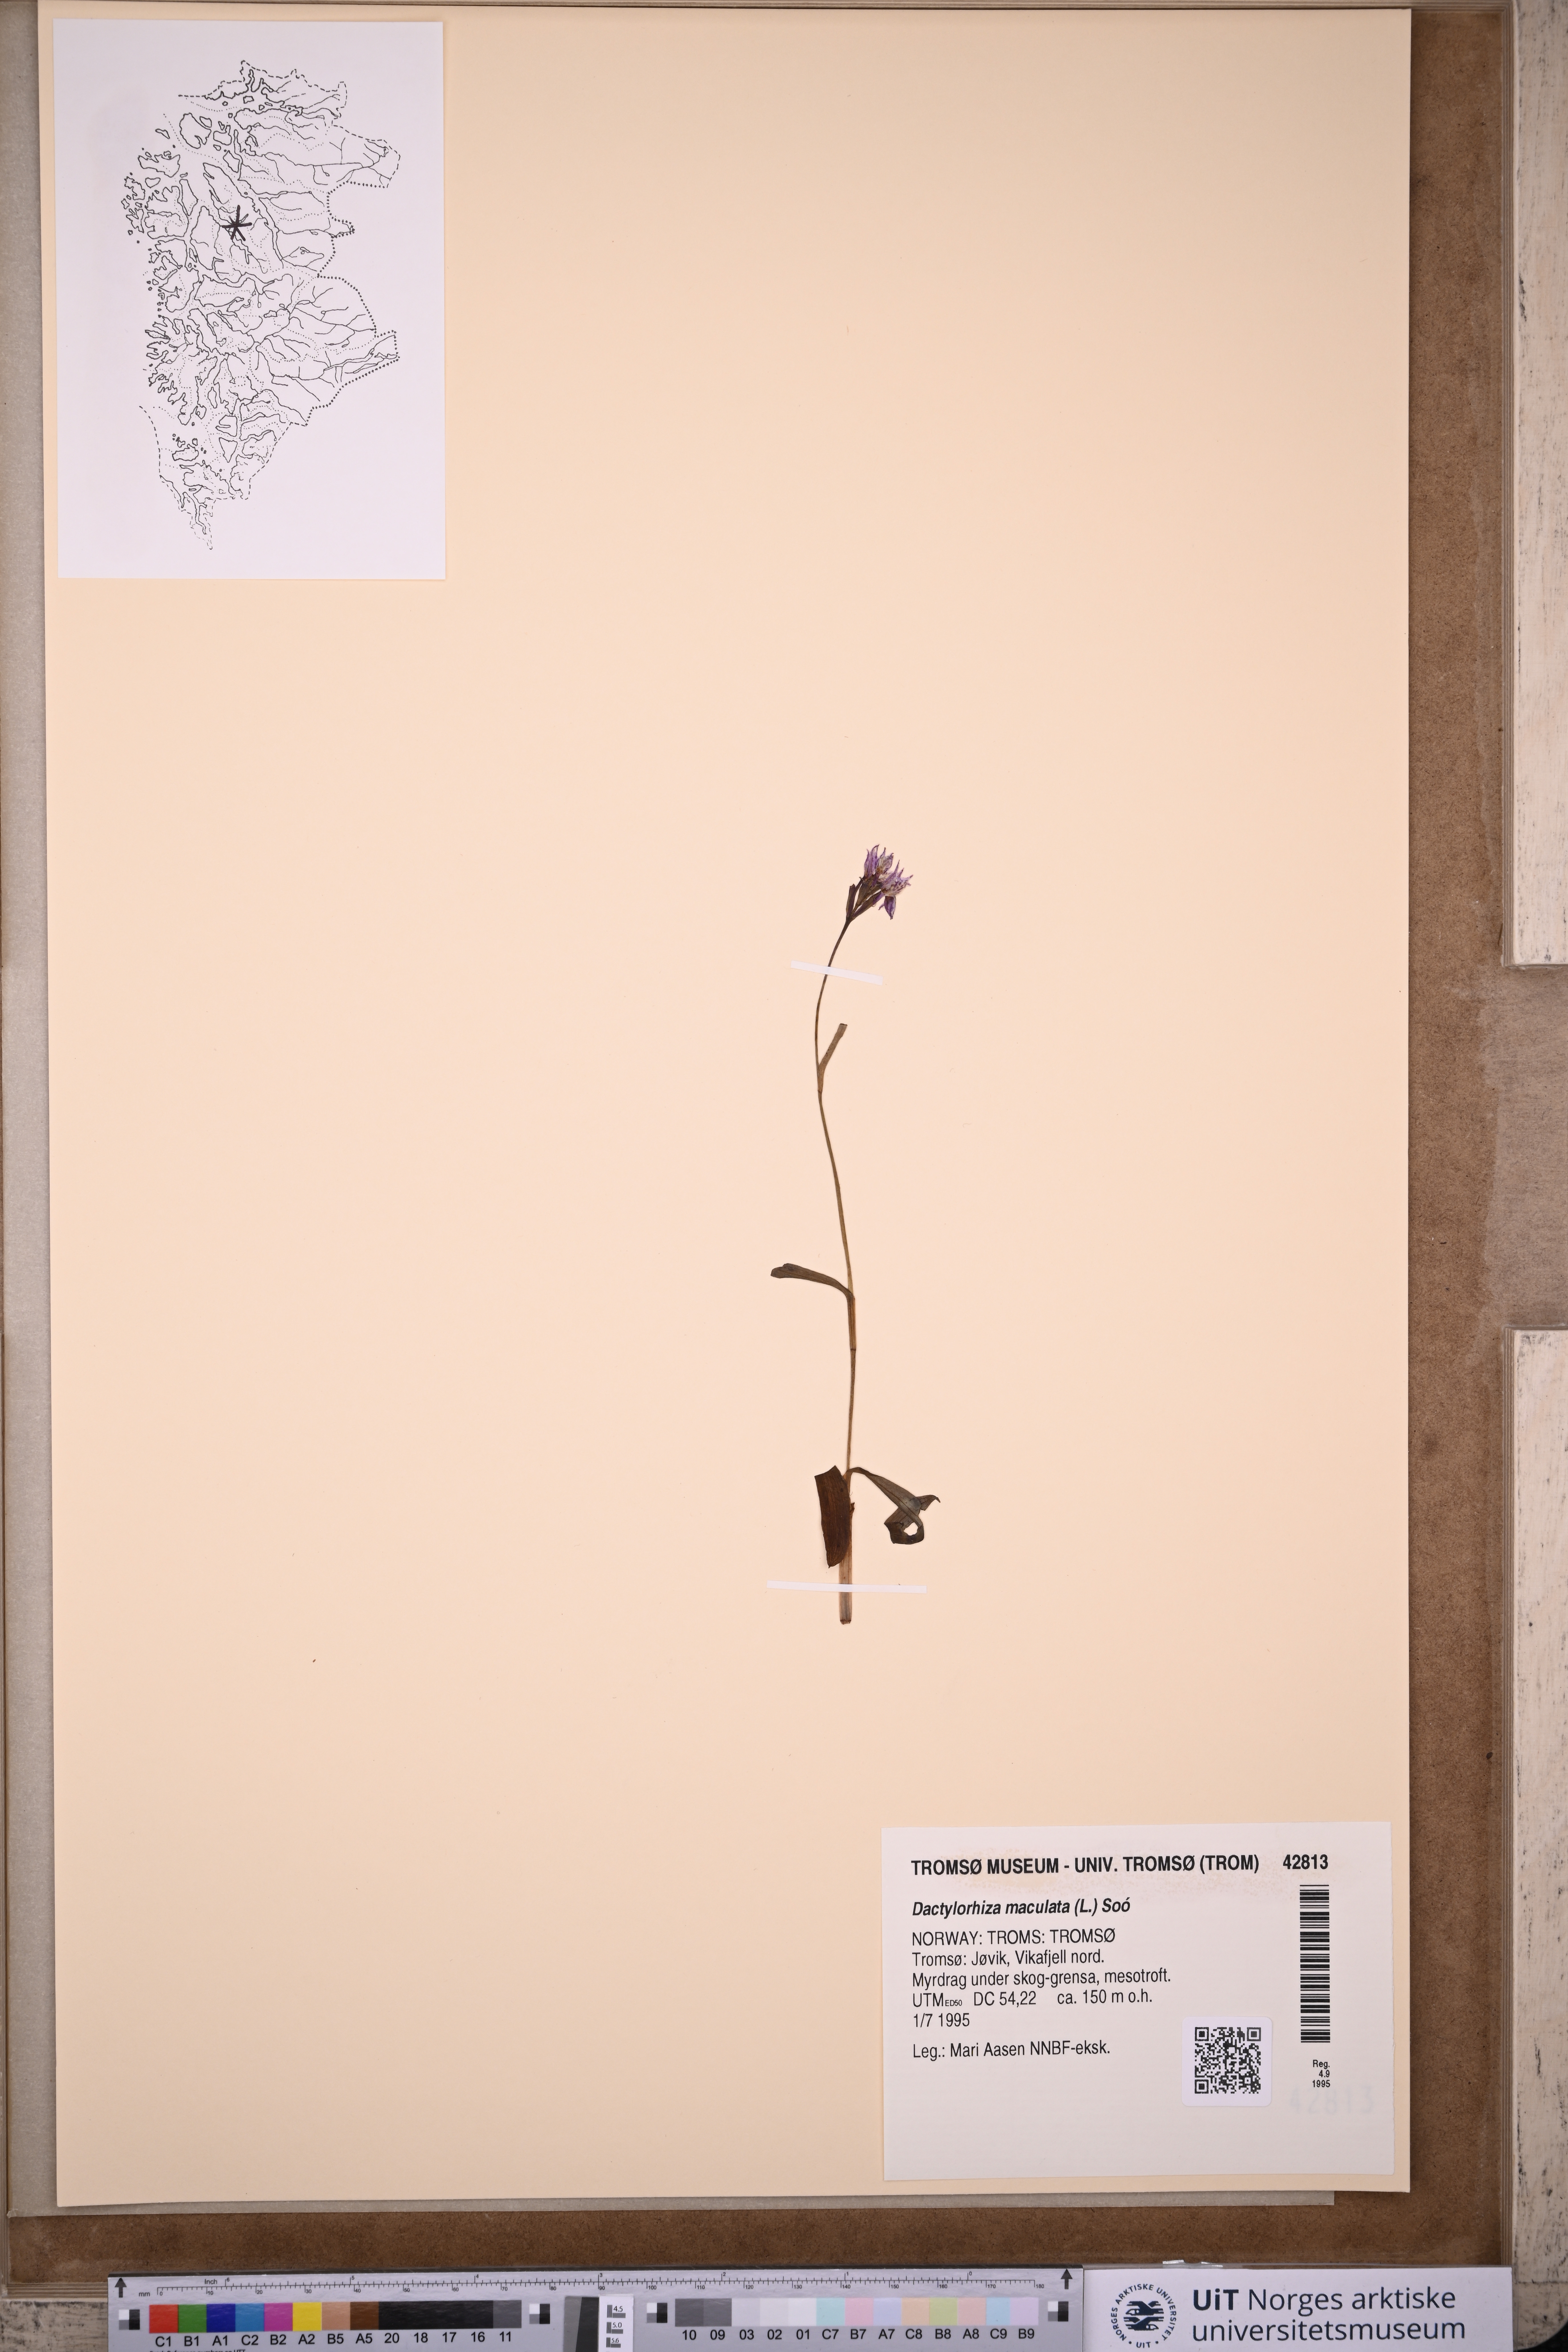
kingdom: Plantae
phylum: Tracheophyta
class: Liliopsida
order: Asparagales
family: Orchidaceae
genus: Dactylorhiza
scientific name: Dactylorhiza maculata
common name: Heath spotted-orchid
